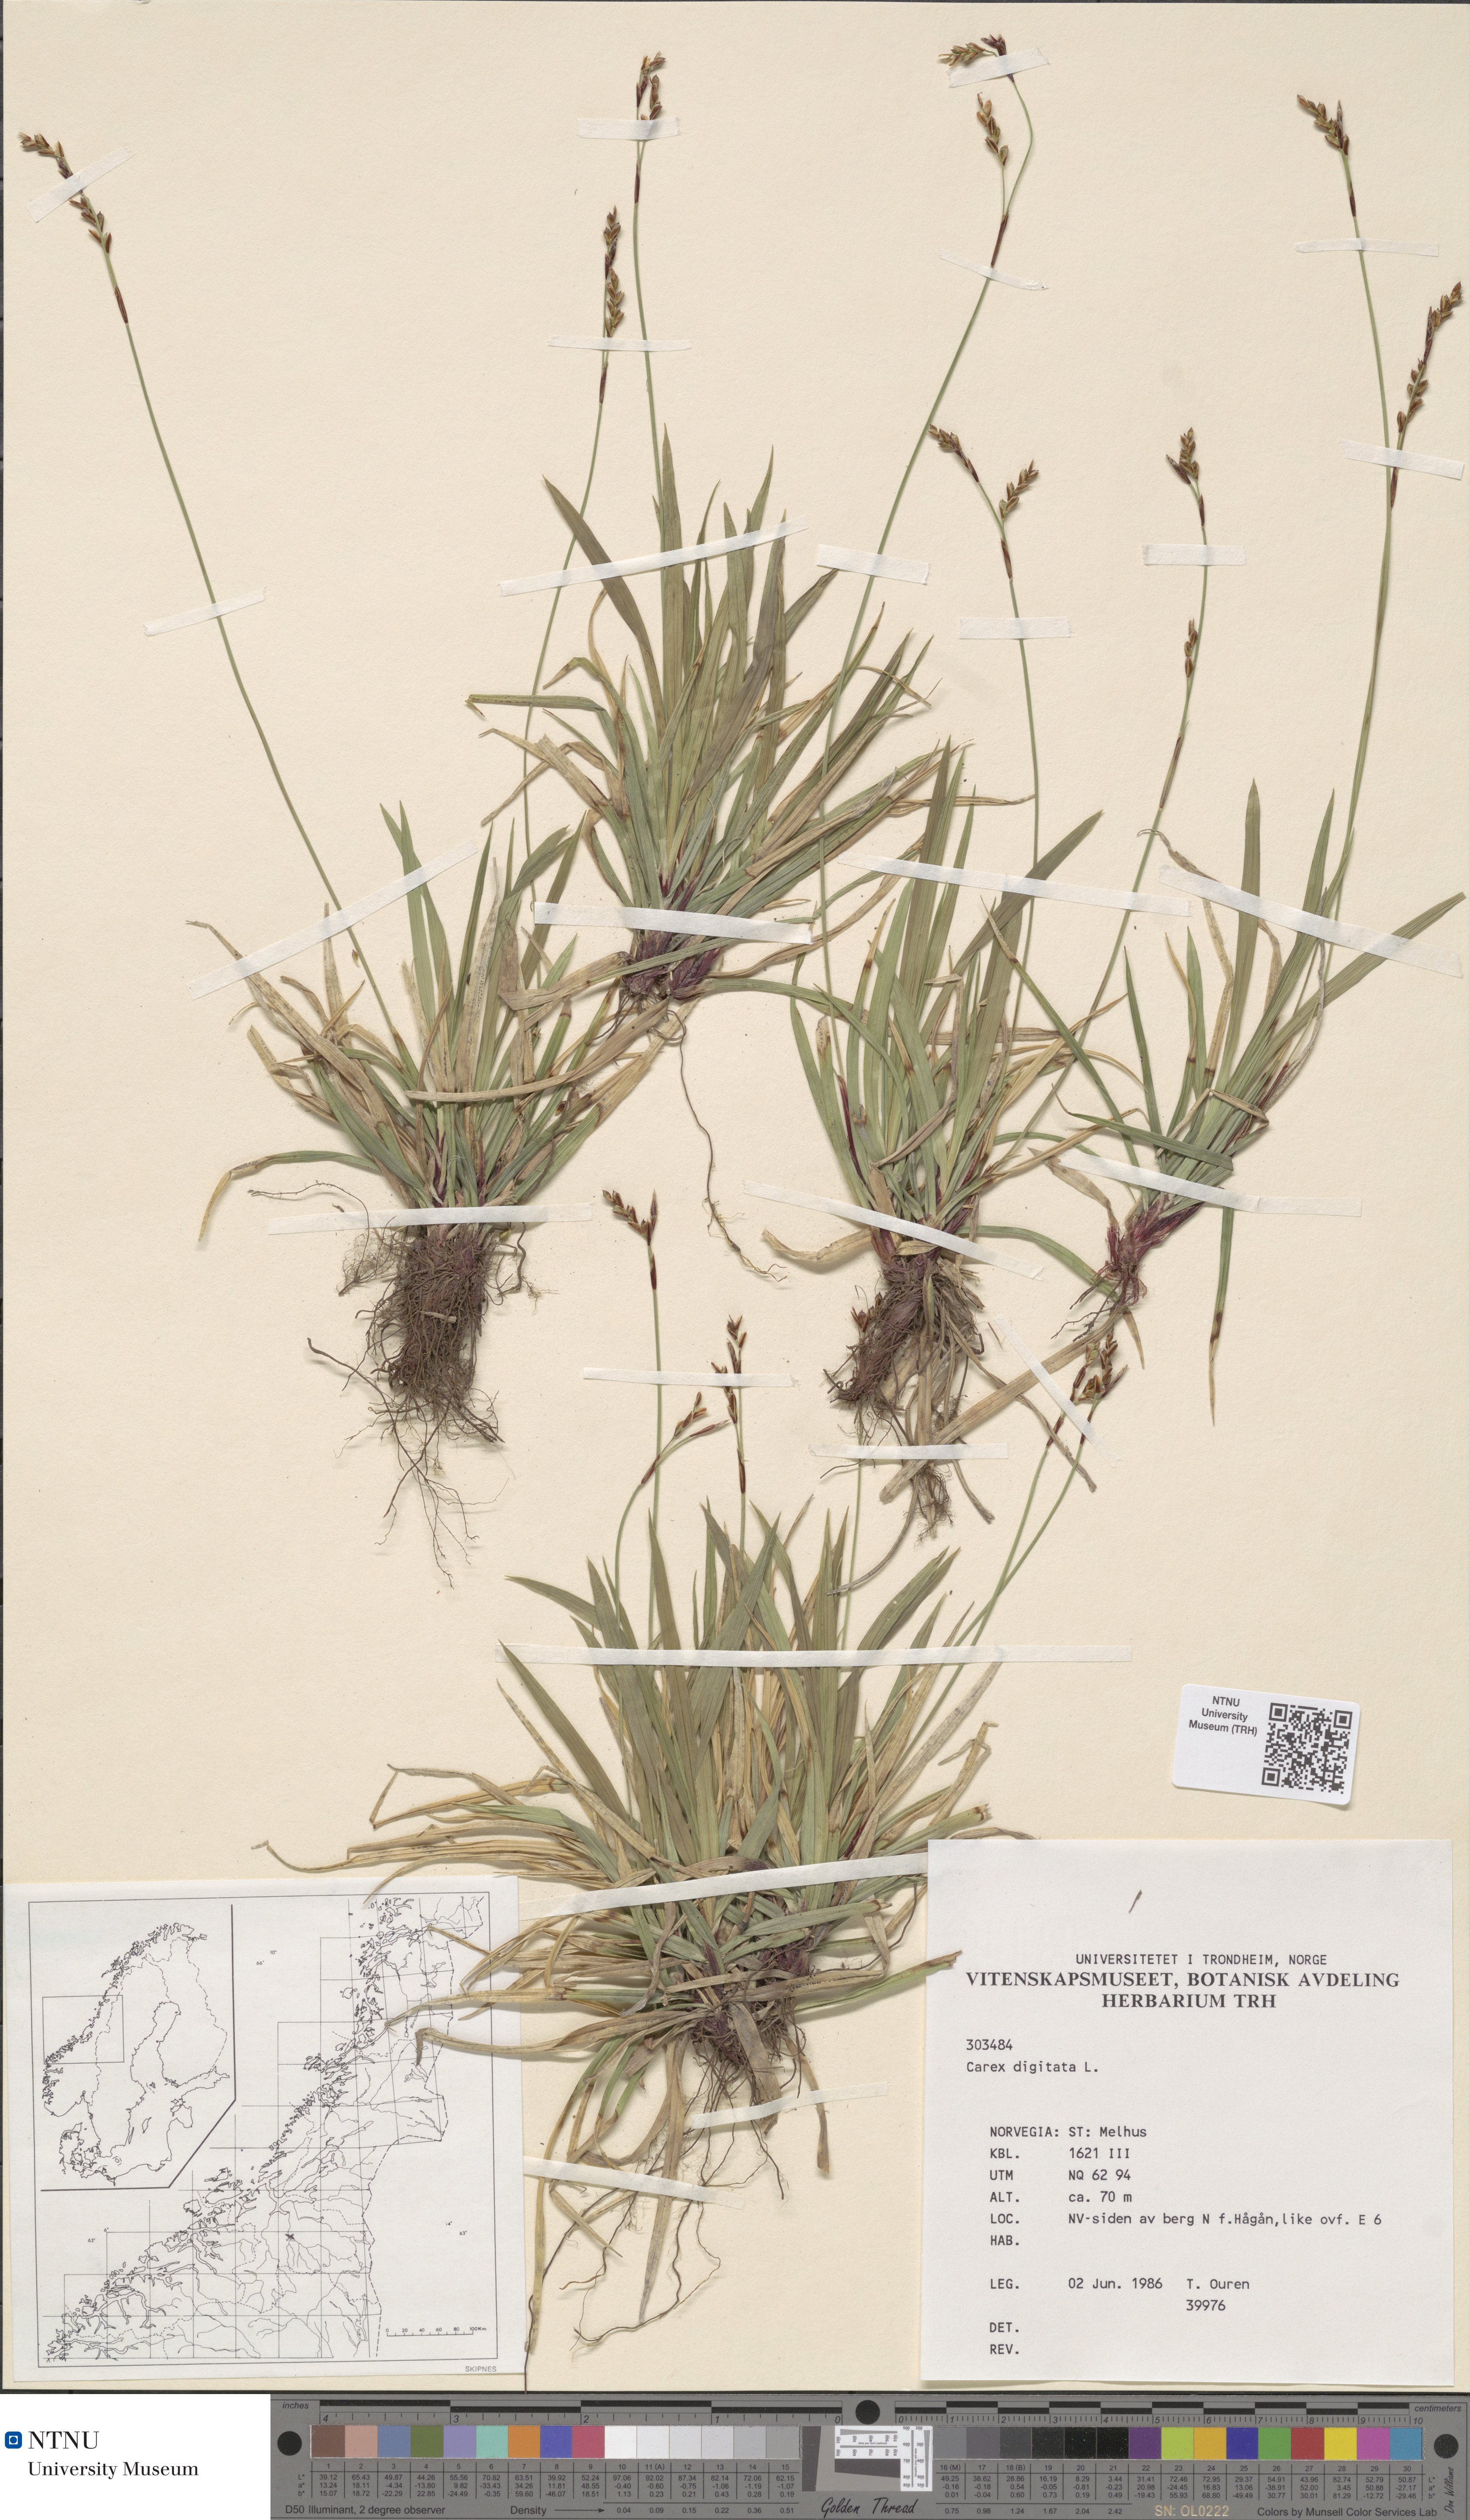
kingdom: Plantae
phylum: Tracheophyta
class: Liliopsida
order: Poales
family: Cyperaceae
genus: Carex
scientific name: Carex digitata
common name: Fingered sedge
